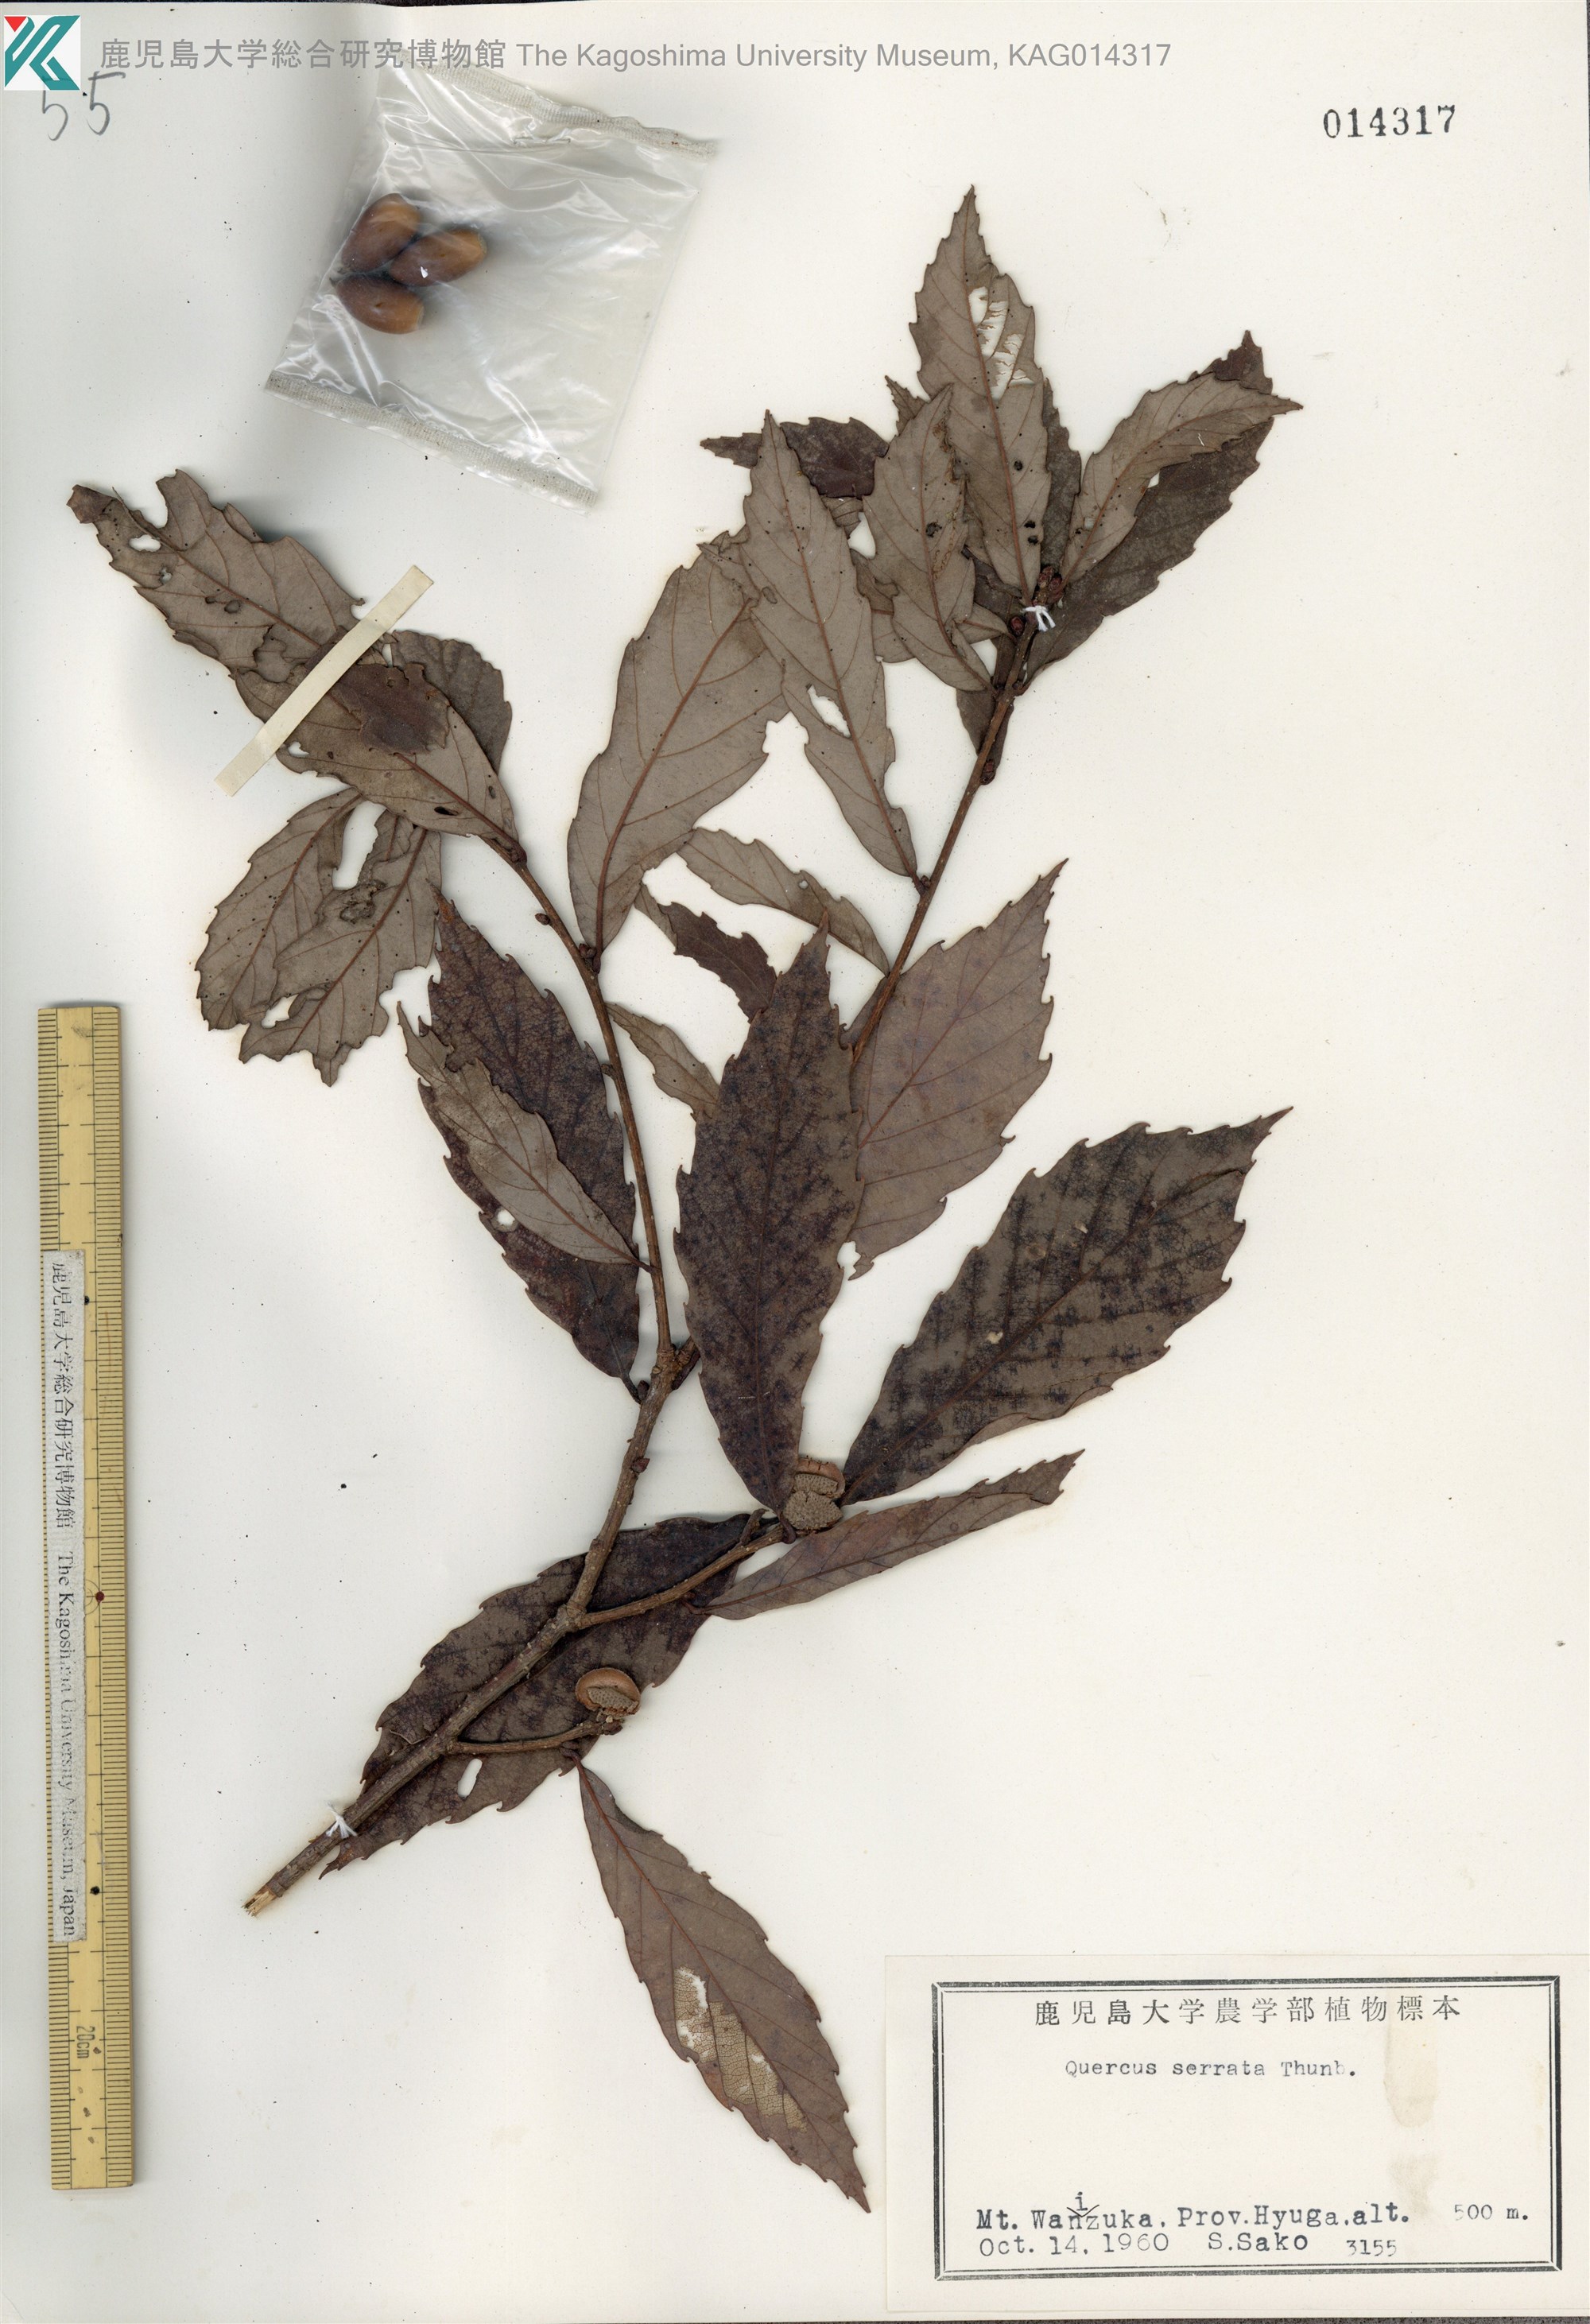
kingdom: Plantae
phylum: Tracheophyta
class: Magnoliopsida
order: Fagales
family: Fagaceae
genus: Quercus
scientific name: Quercus serrata
